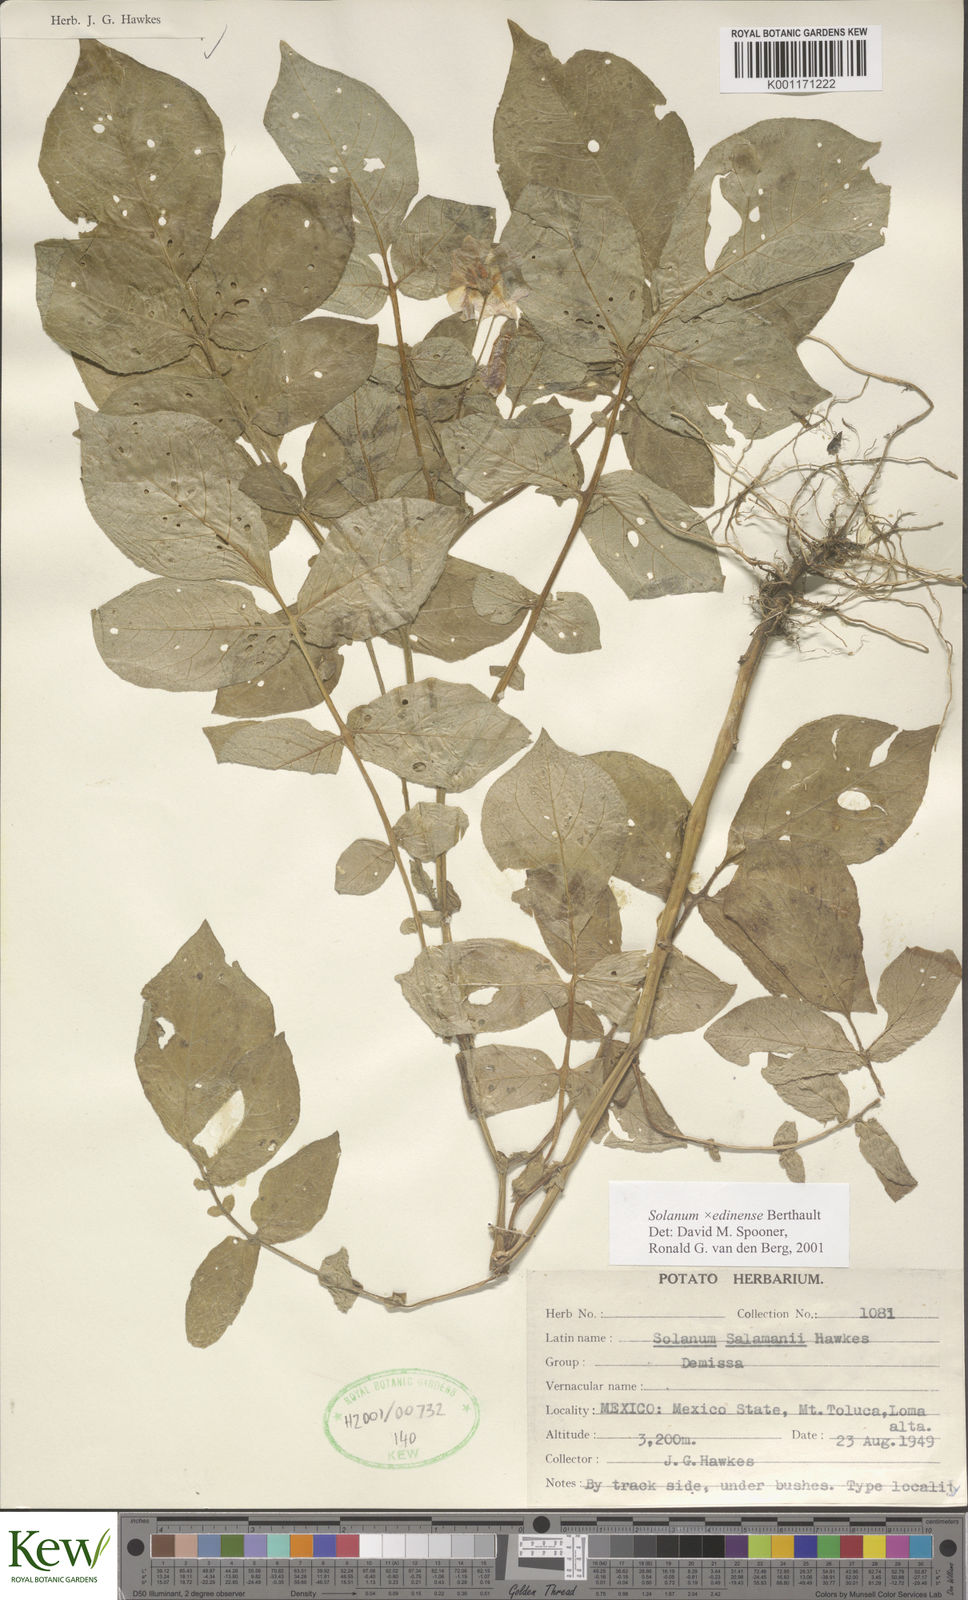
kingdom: Plantae
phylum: Tracheophyta
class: Magnoliopsida
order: Solanales
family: Solanaceae
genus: Solanum
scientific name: Solanum edinense
